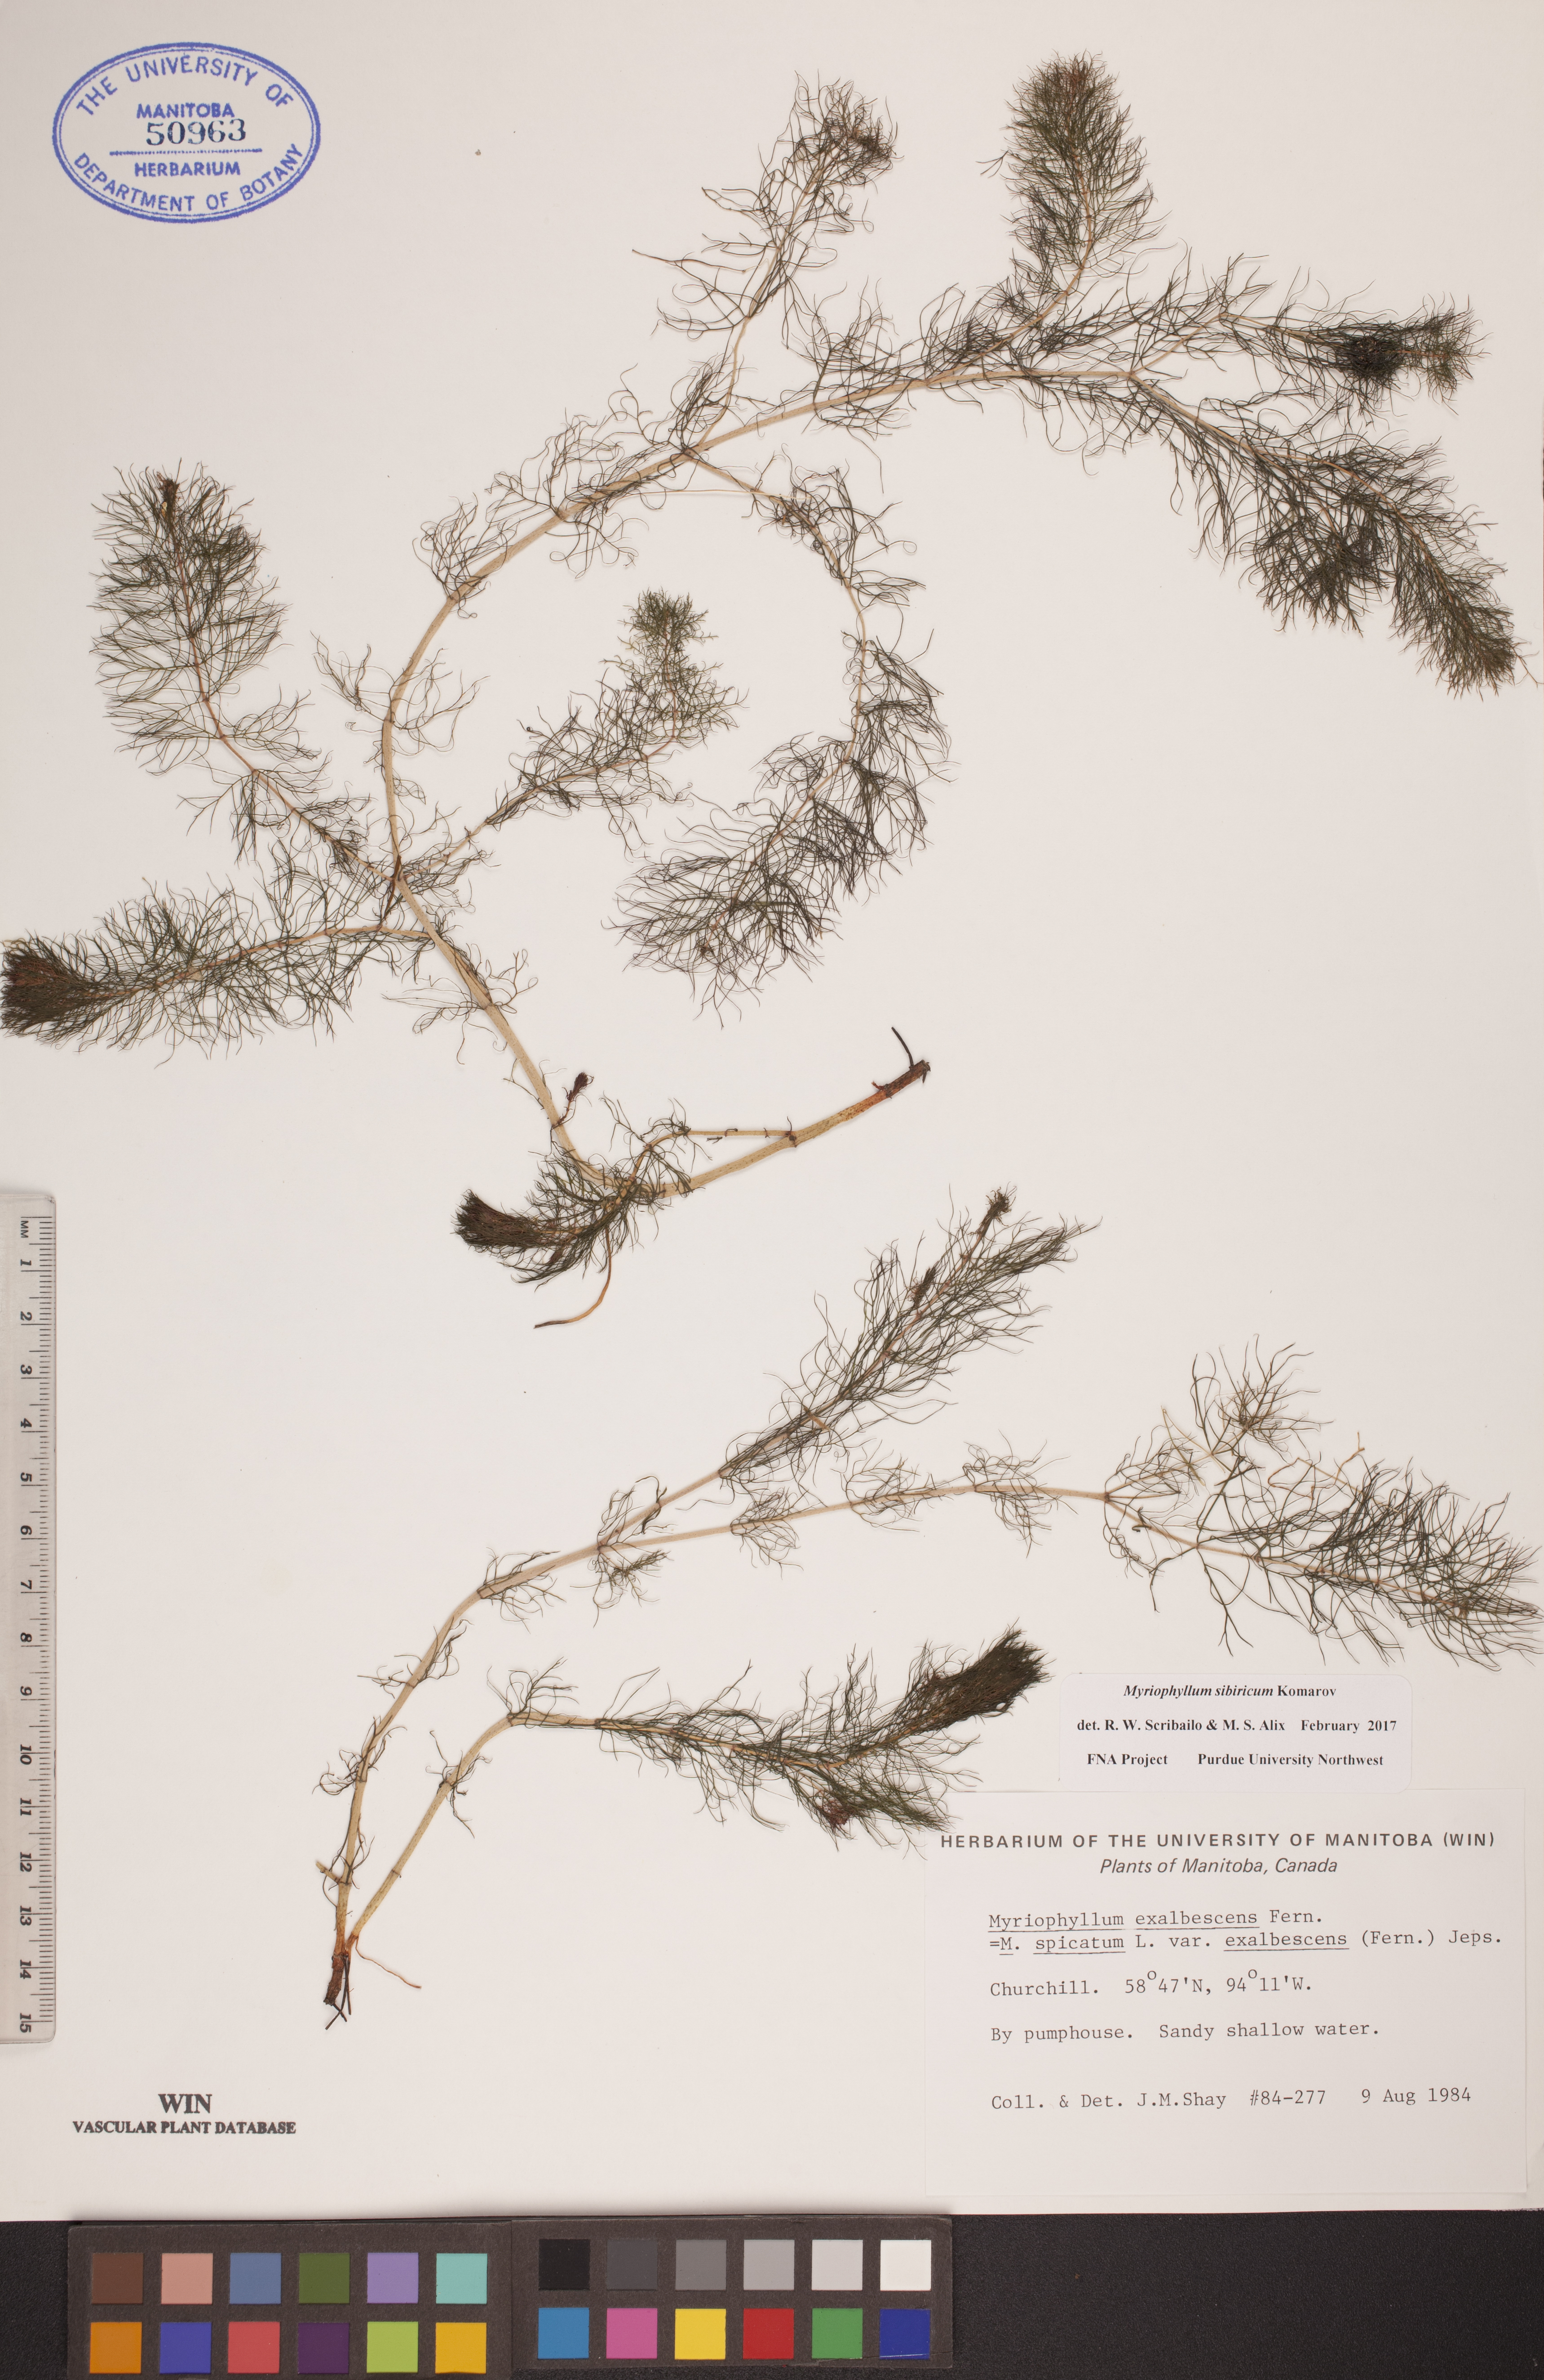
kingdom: Plantae
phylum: Tracheophyta
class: Magnoliopsida
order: Saxifragales
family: Haloragaceae
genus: Myriophyllum
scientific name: Myriophyllum sibiricum
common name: Siberian water-milfoil
